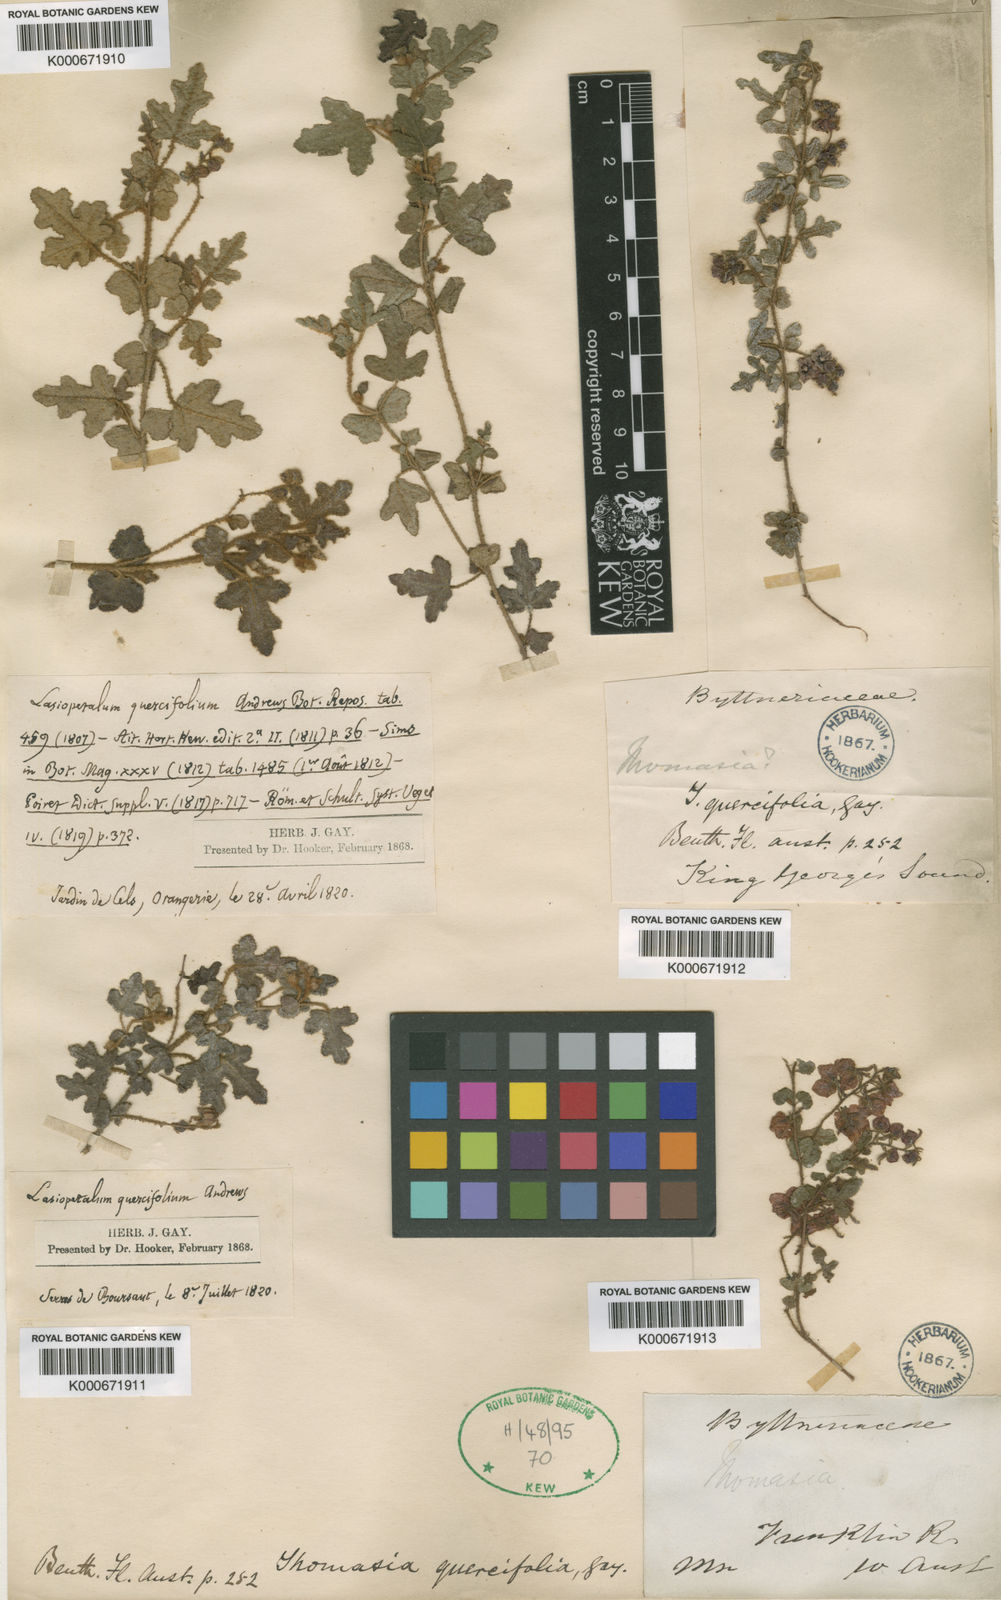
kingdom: Plantae
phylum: Tracheophyta
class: Magnoliopsida
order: Malvales
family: Malvaceae
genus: Thomasia
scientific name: Thomasia quercifolia
